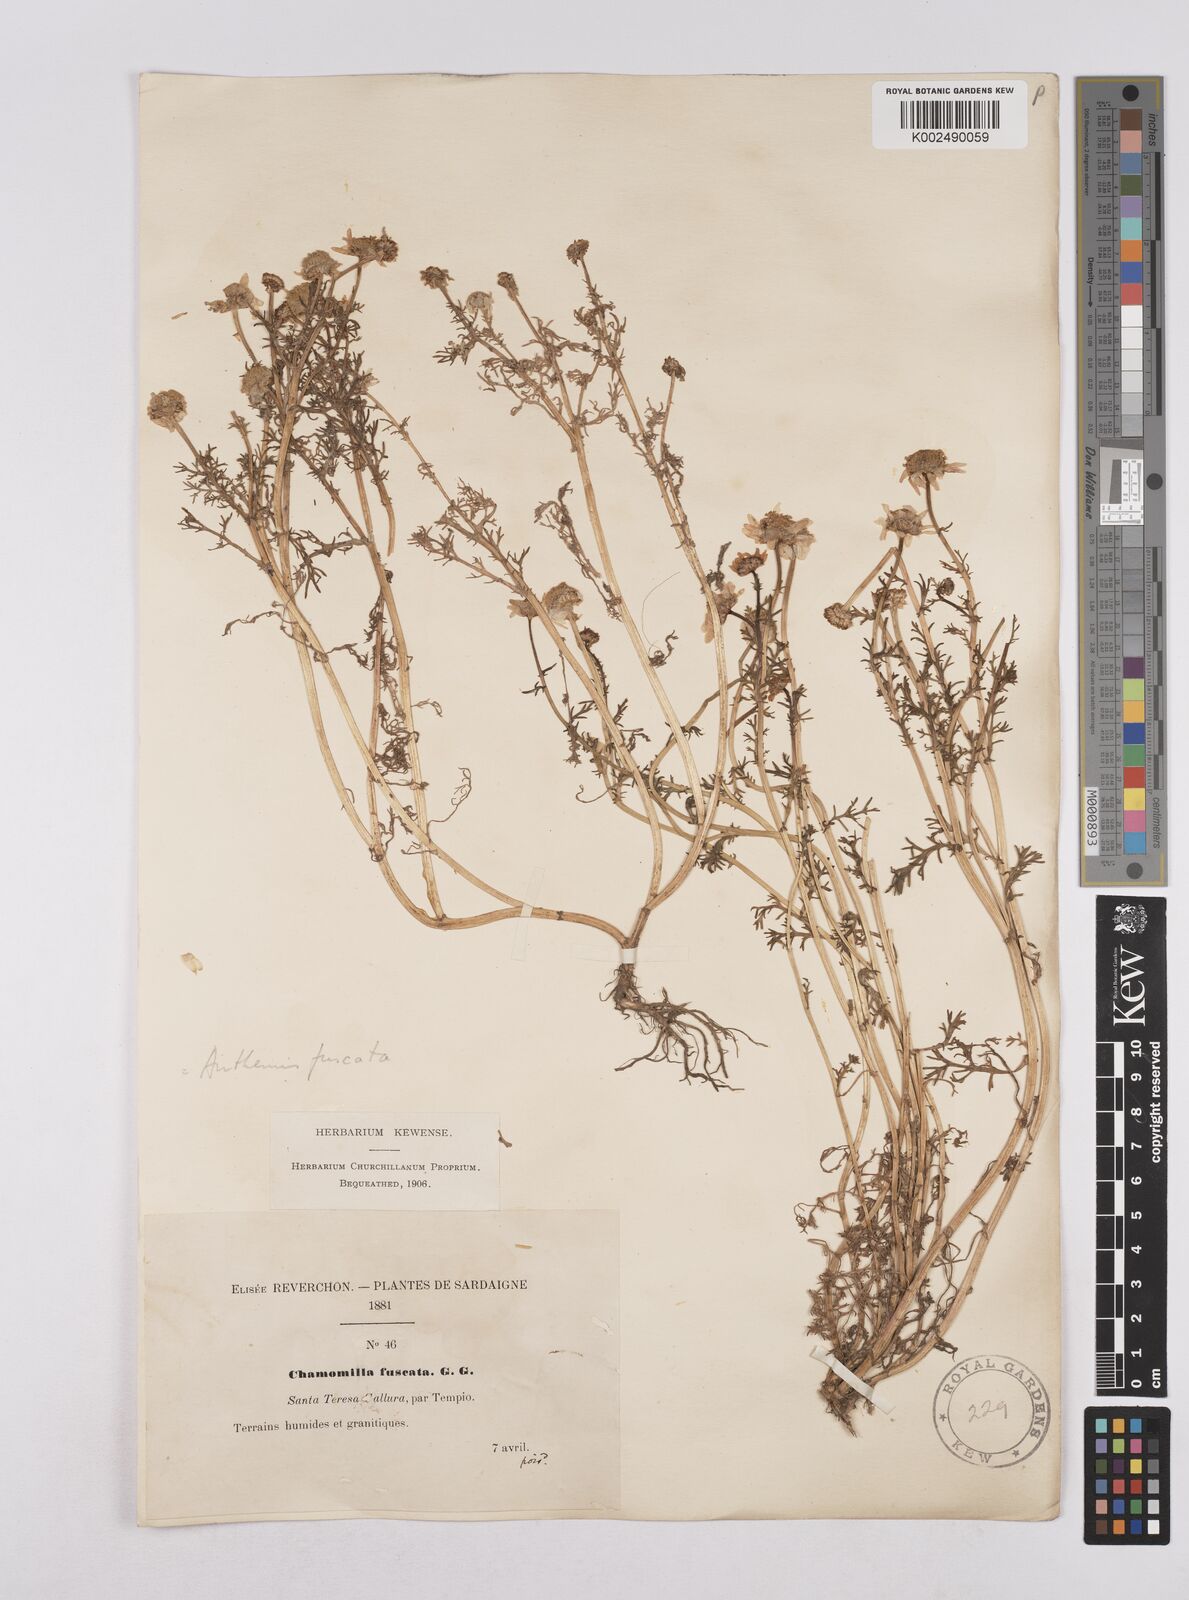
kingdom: Plantae
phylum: Tracheophyta
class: Magnoliopsida
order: Asterales
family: Asteraceae
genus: Chamaemelum
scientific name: Chamaemelum fuscatum
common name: Chamomile
